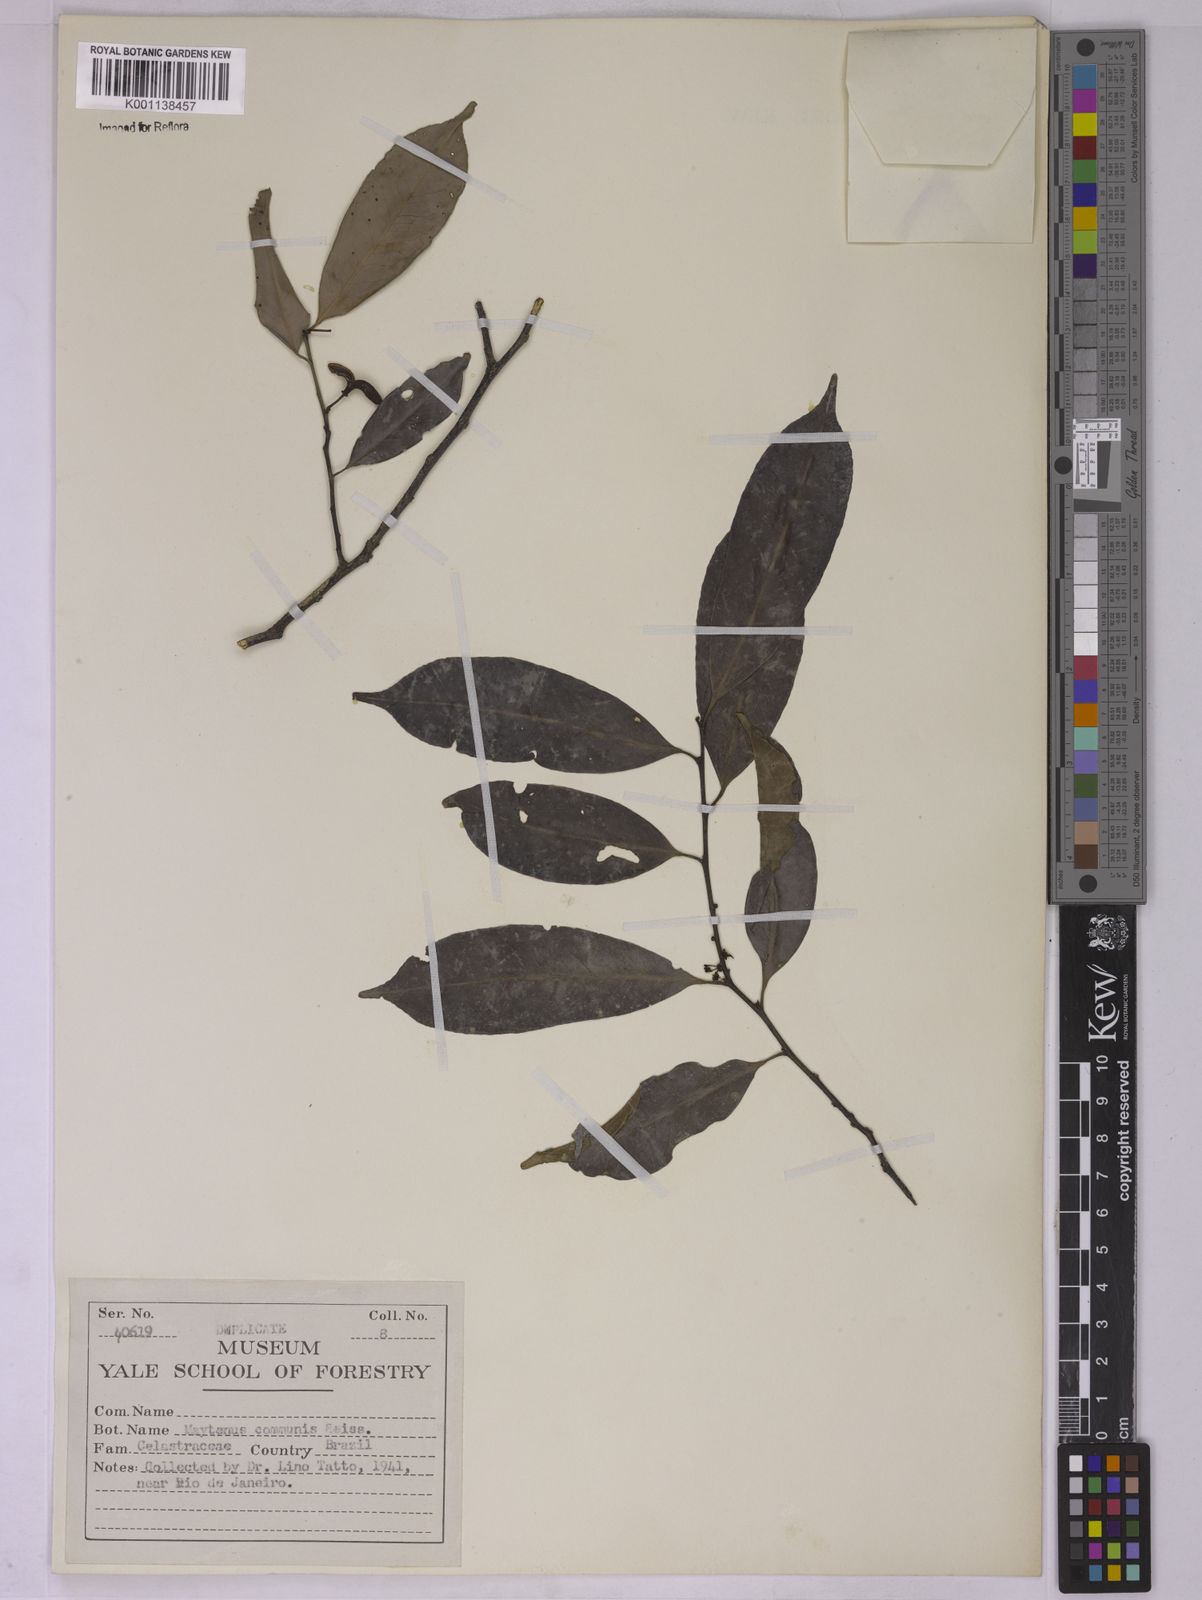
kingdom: Plantae
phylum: Tracheophyta
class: Magnoliopsida
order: Celastrales
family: Celastraceae
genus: Monteverdia
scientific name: Monteverdia communis
